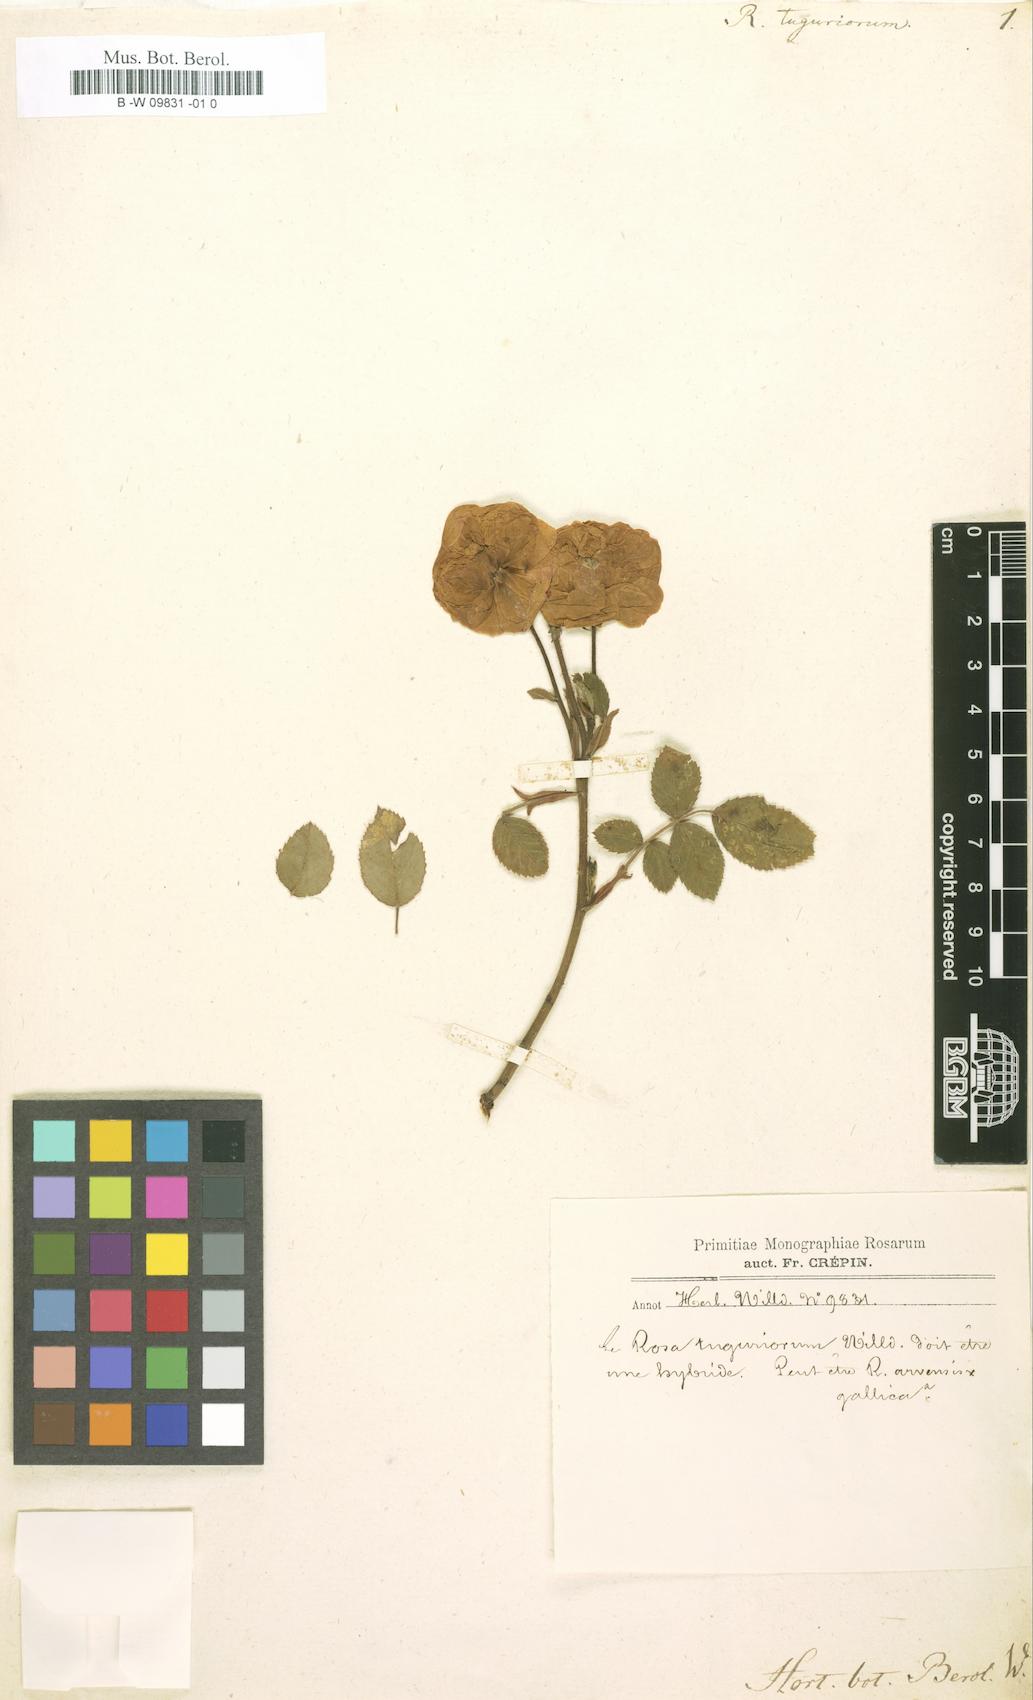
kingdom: Plantae
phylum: Tracheophyta
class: Magnoliopsida
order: Rosales
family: Rosaceae
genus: Rosa
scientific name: Rosa tuguriorum
